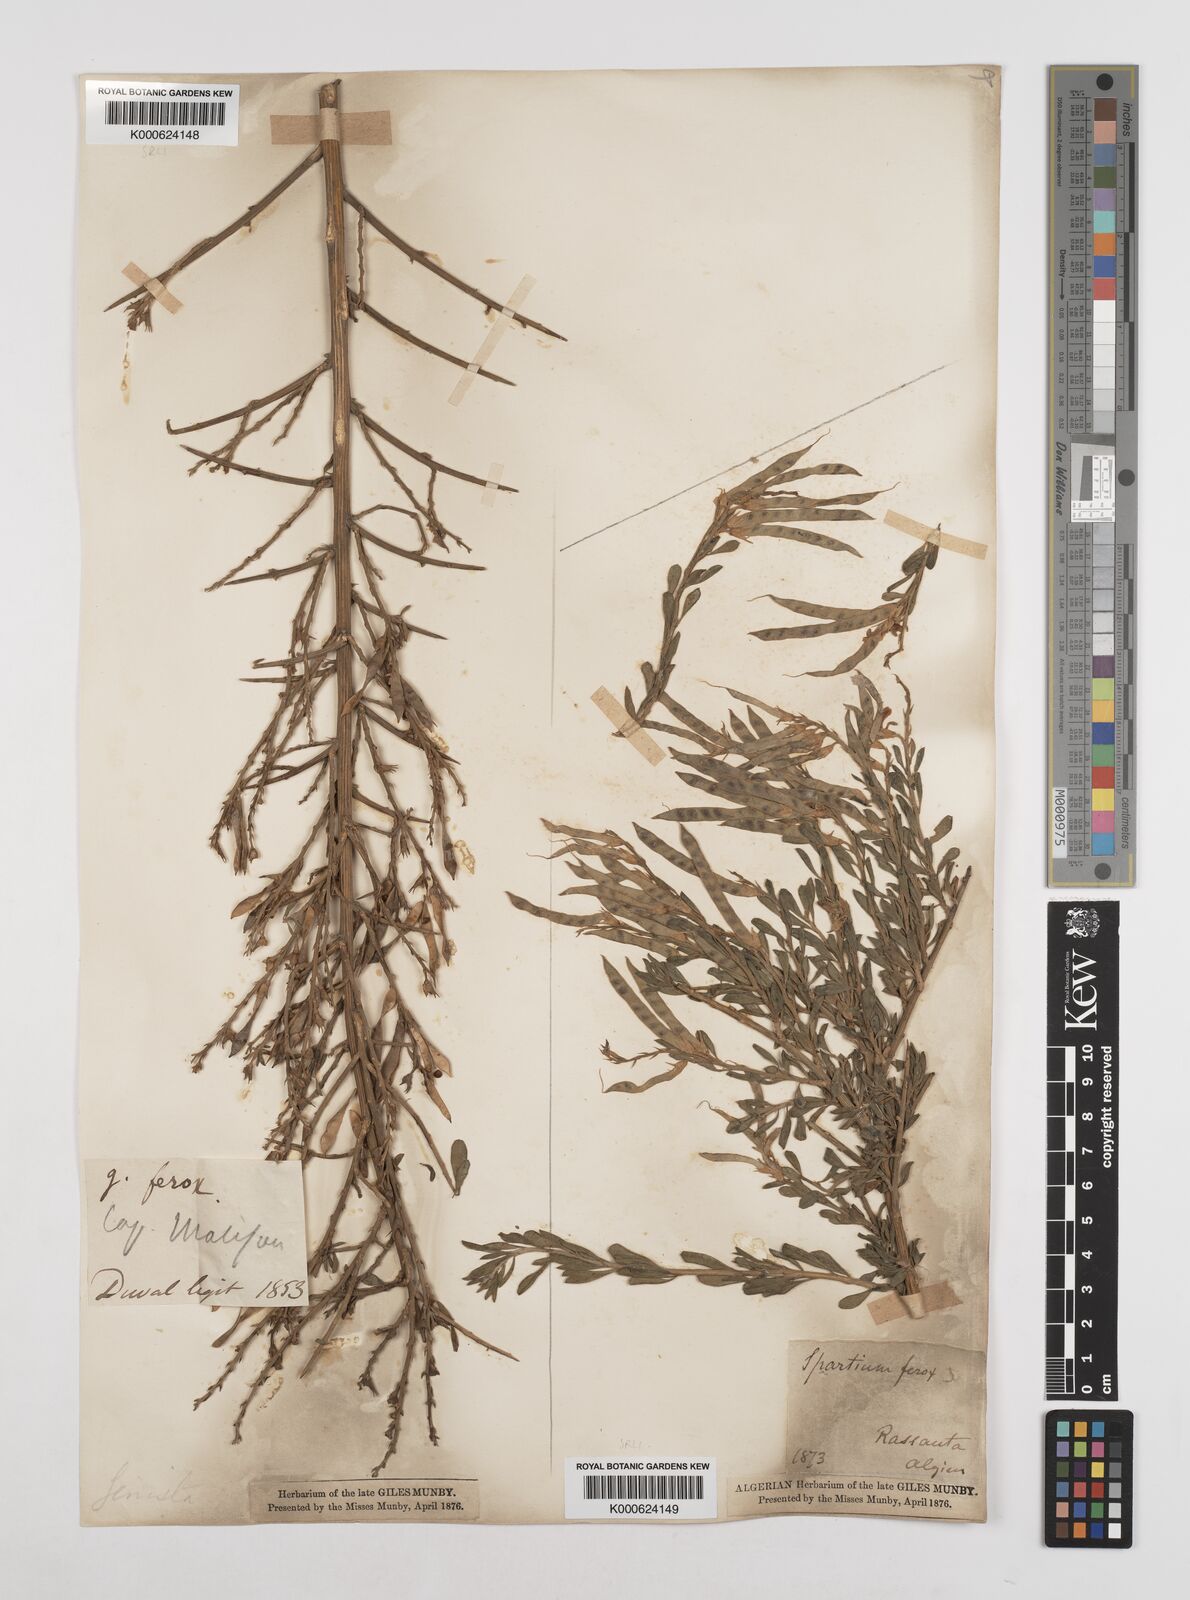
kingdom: Plantae
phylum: Tracheophyta
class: Magnoliopsida
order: Fabales
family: Fabaceae
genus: Genista
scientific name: Genista ferox
